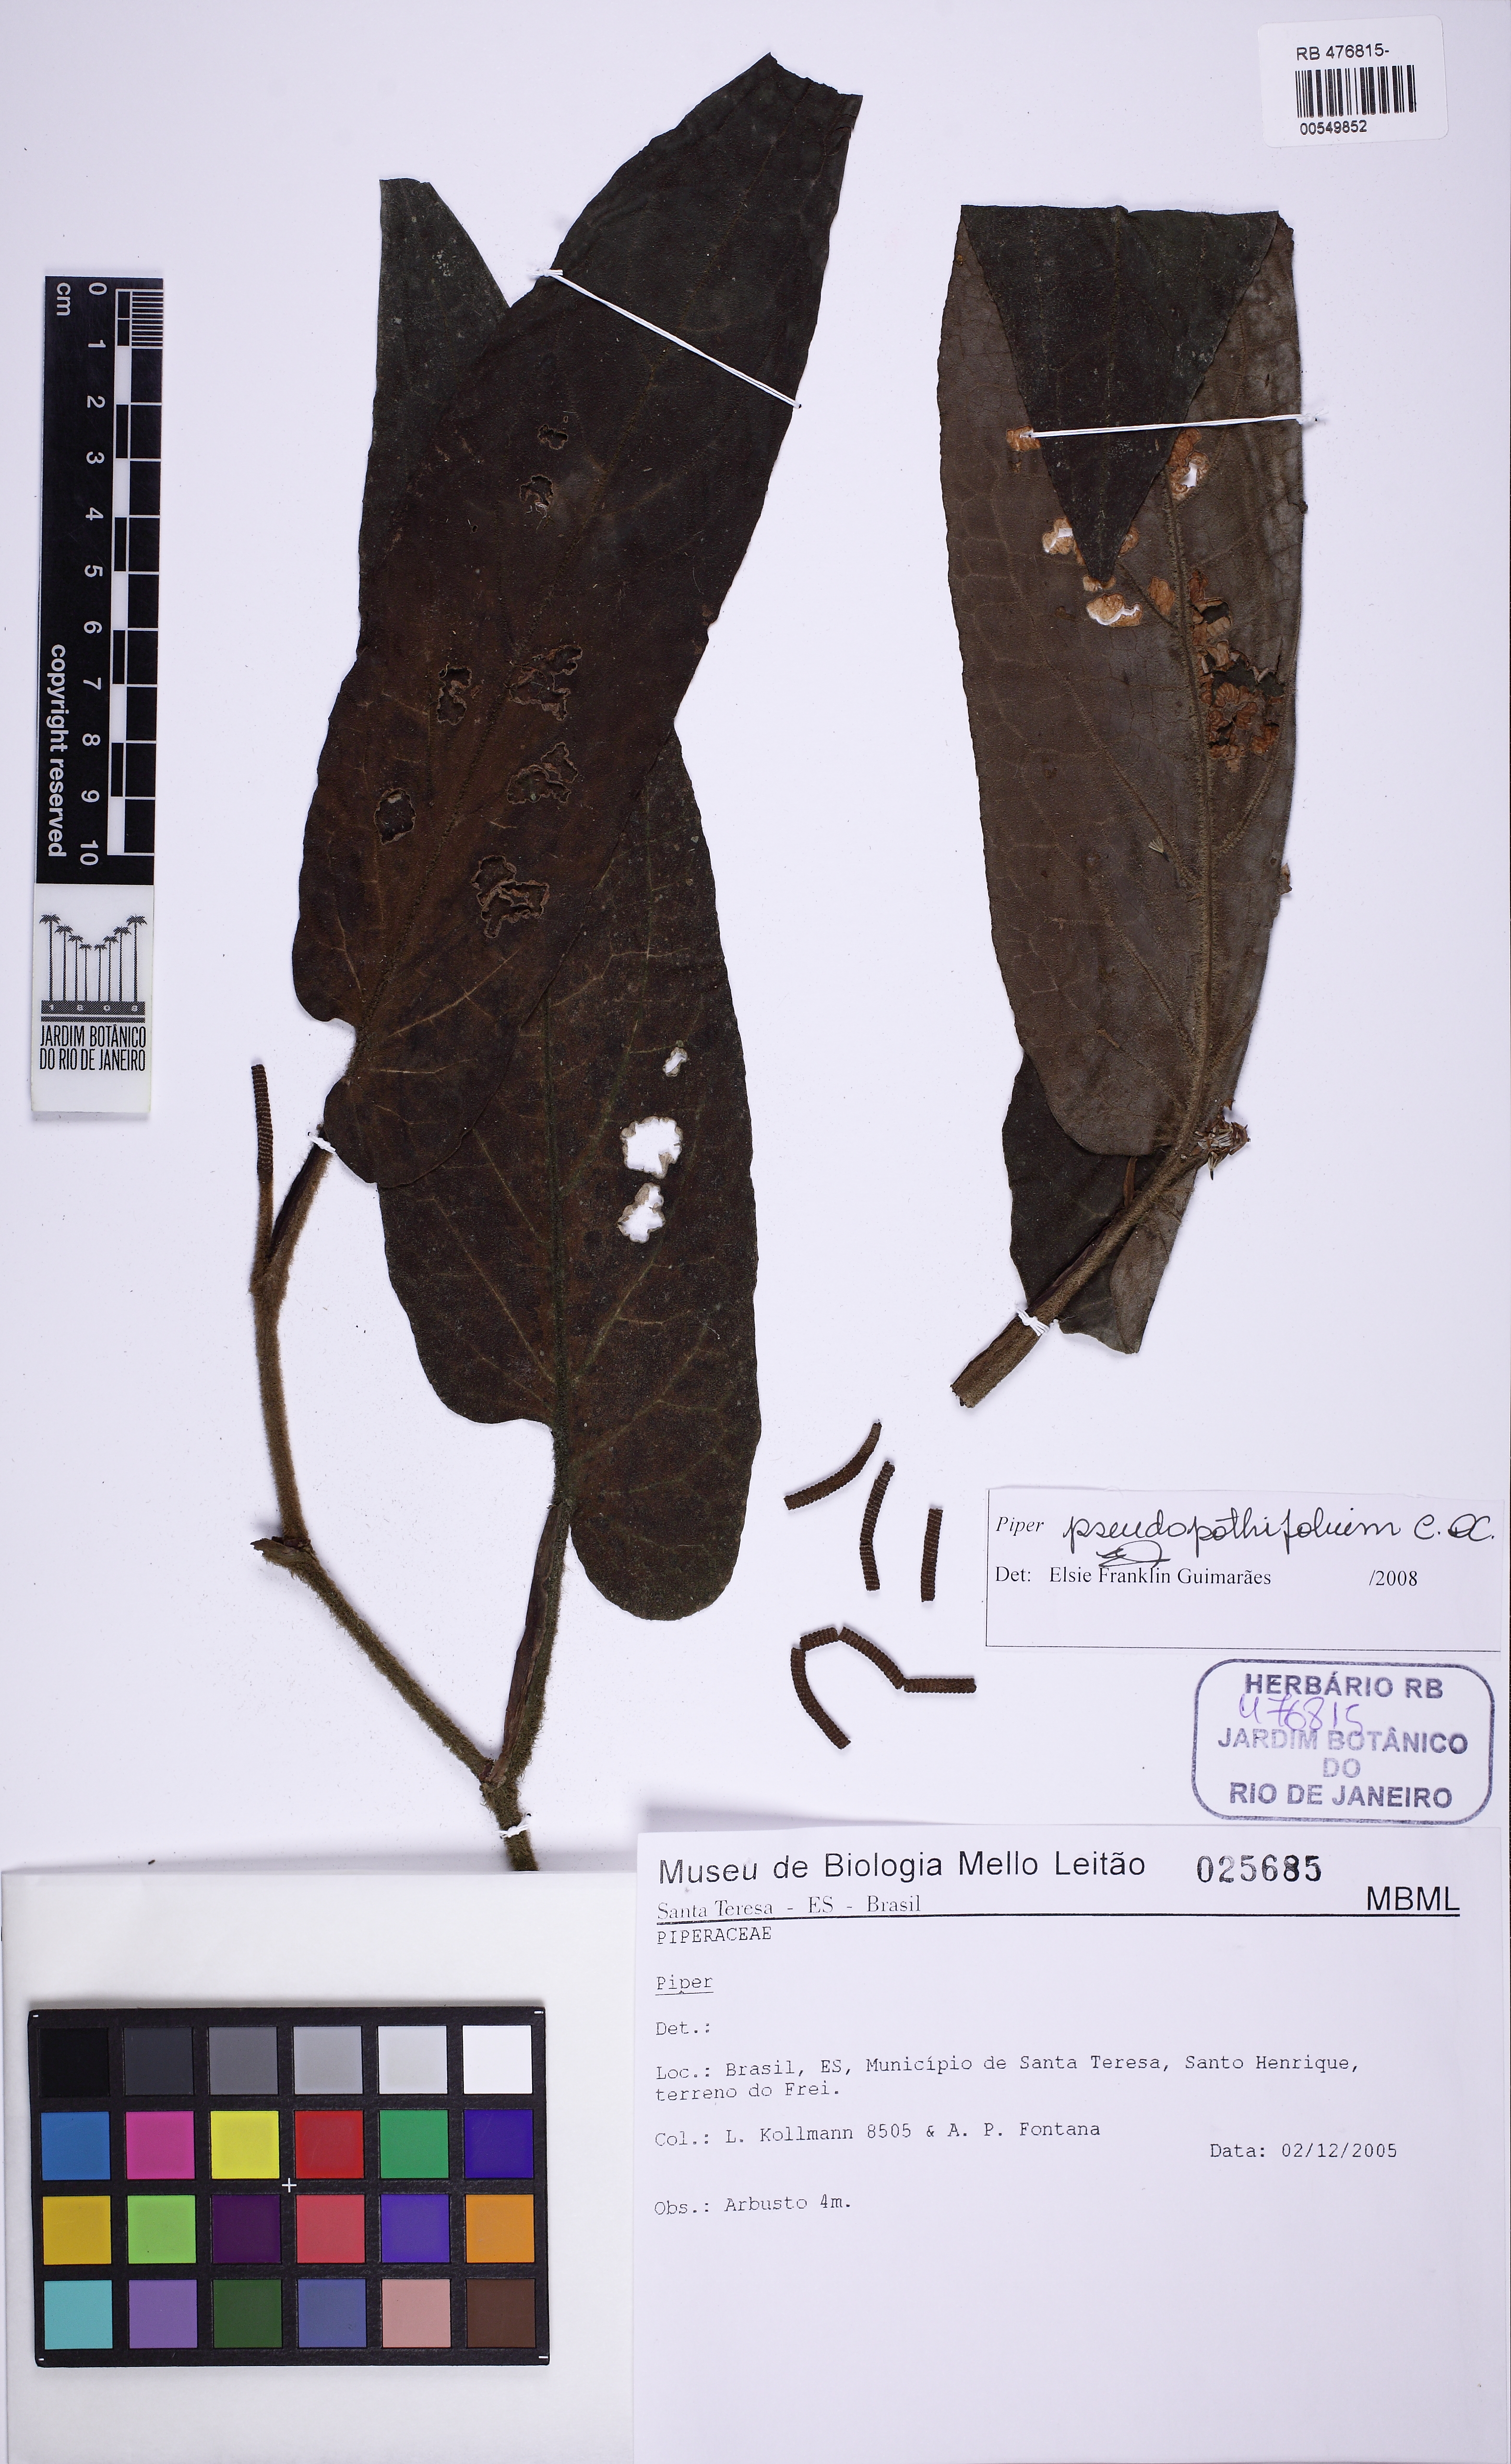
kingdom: Plantae
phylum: Tracheophyta
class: Magnoliopsida
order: Piperales
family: Piperaceae
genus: Piper
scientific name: Piper pseudopothifolium
